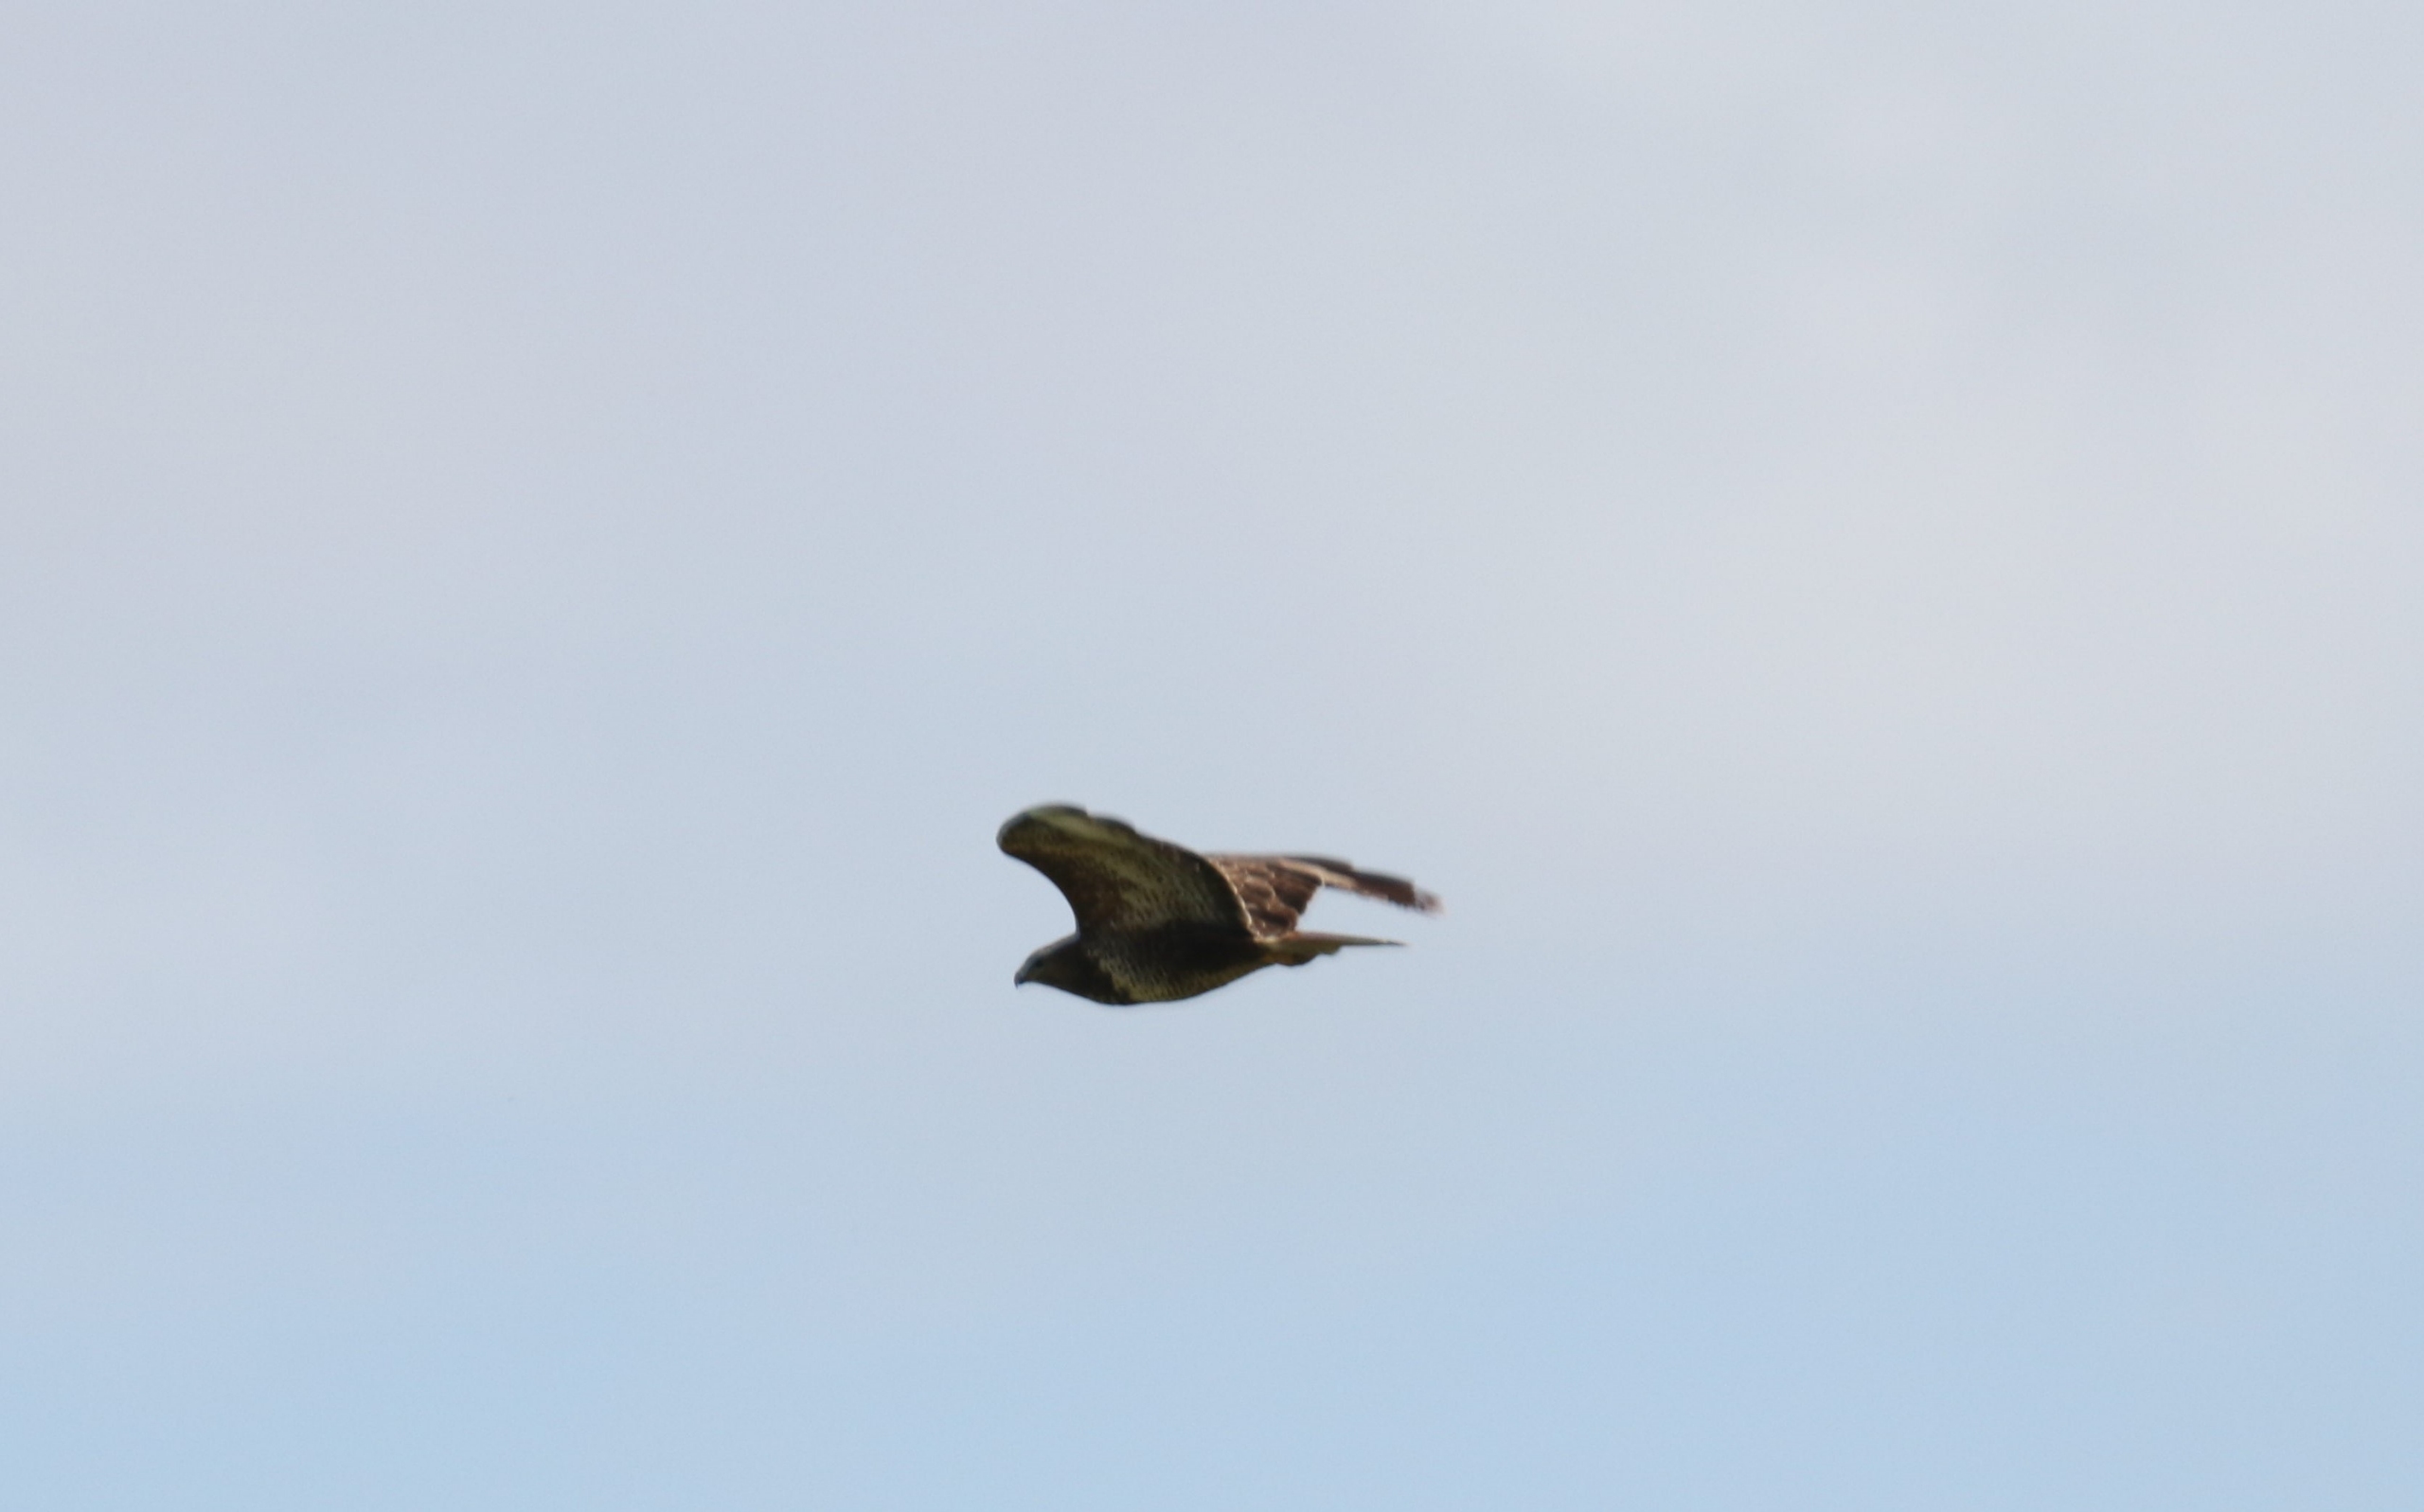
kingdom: Animalia
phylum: Chordata
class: Aves
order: Accipitriformes
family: Accipitridae
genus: Buteo
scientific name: Buteo buteo
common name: Musvåge
